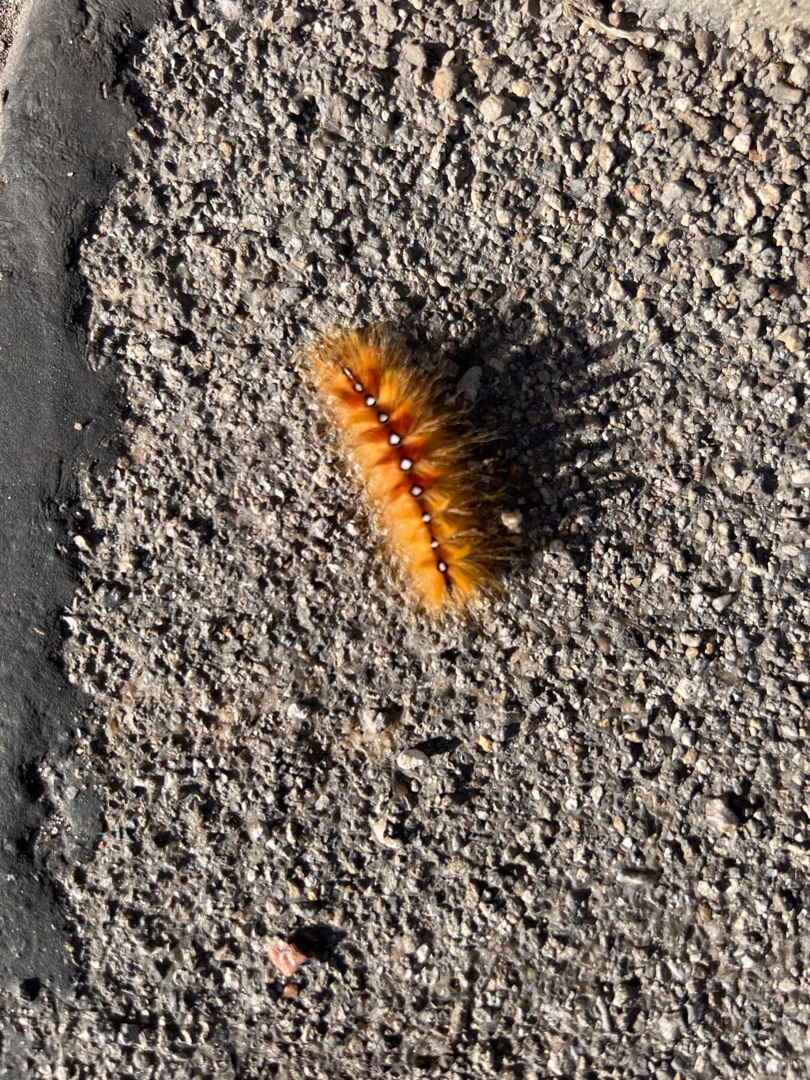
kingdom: Animalia
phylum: Arthropoda
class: Insecta
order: Lepidoptera
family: Noctuidae
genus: Acronicta
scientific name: Acronicta aceris
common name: Ahornugle
